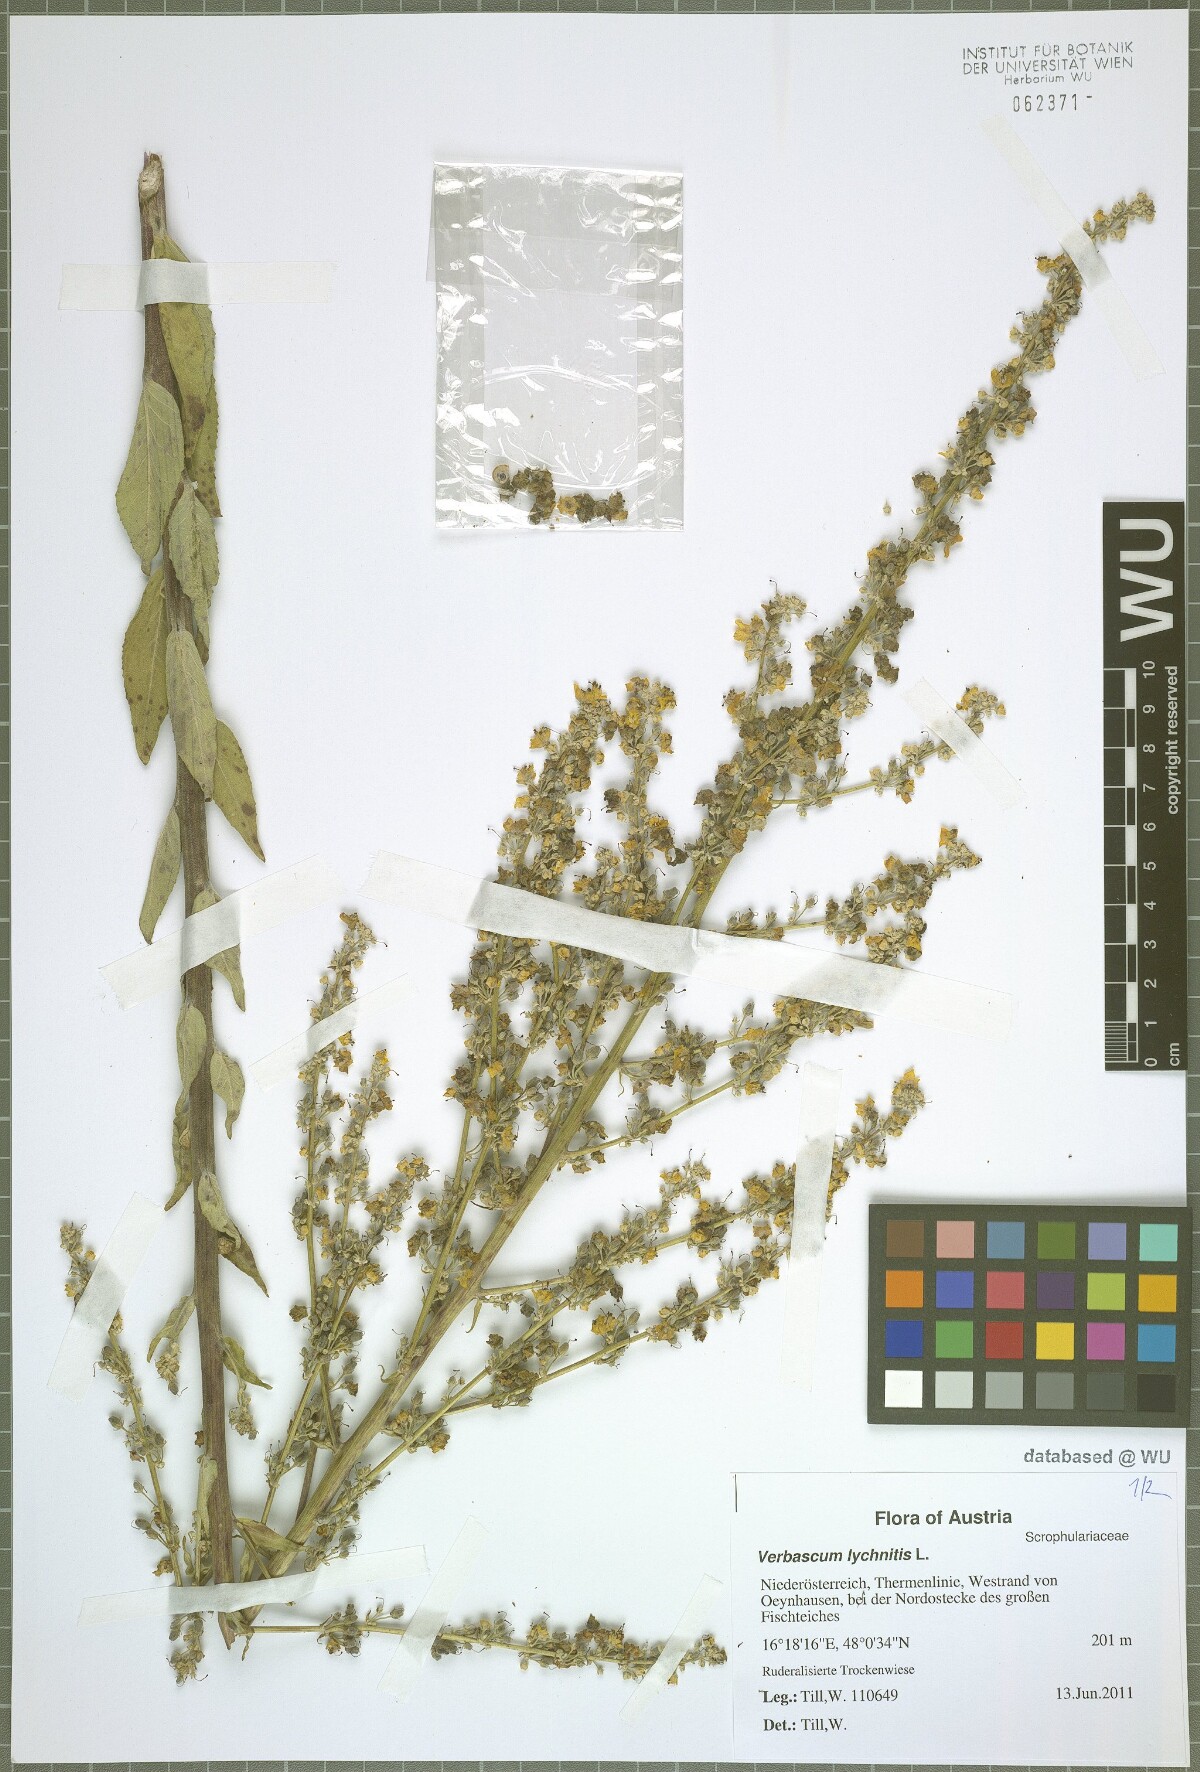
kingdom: Plantae
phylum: Tracheophyta
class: Magnoliopsida
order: Lamiales
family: Scrophulariaceae
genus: Verbascum
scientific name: Verbascum lychnitis
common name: White mullein
